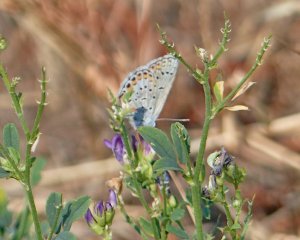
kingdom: Animalia
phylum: Arthropoda
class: Insecta
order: Lepidoptera
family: Lycaenidae
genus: Lycaeides
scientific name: Lycaeides melissa
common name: Melissa Blue
